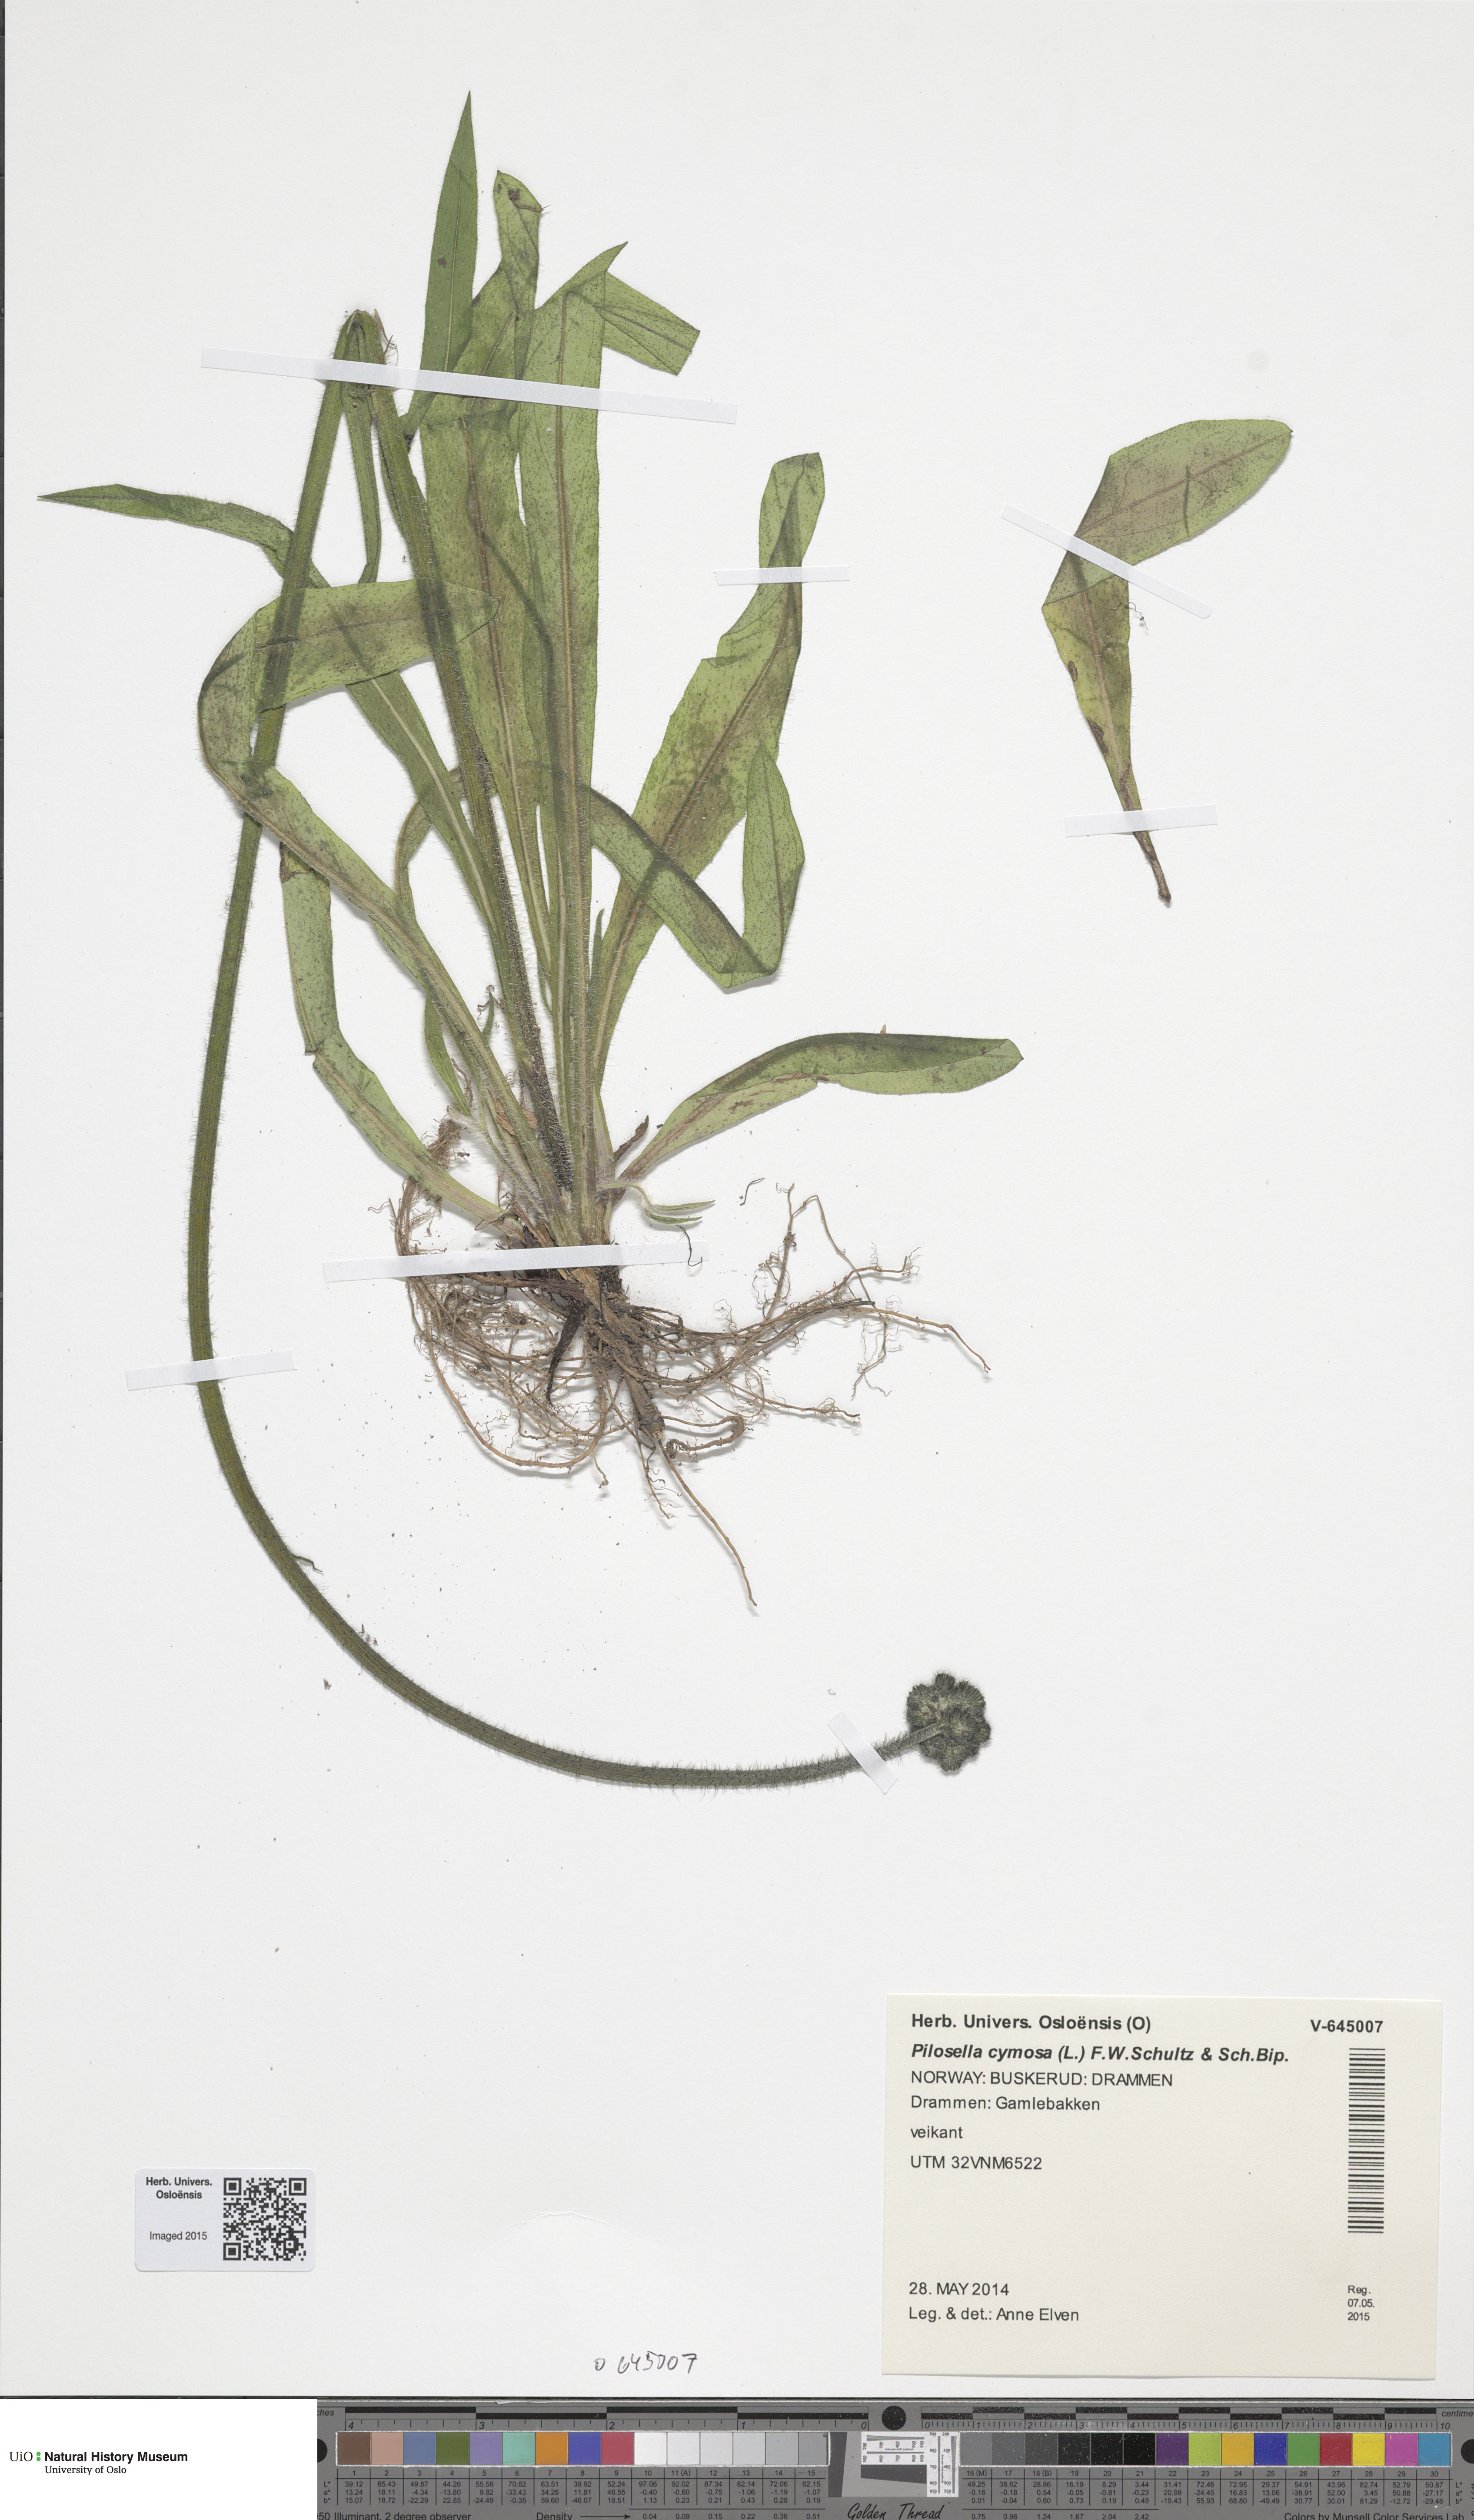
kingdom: Plantae
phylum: Tracheophyta
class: Magnoliopsida
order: Asterales
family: Asteraceae
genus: Pilosella
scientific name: Pilosella cymosa
